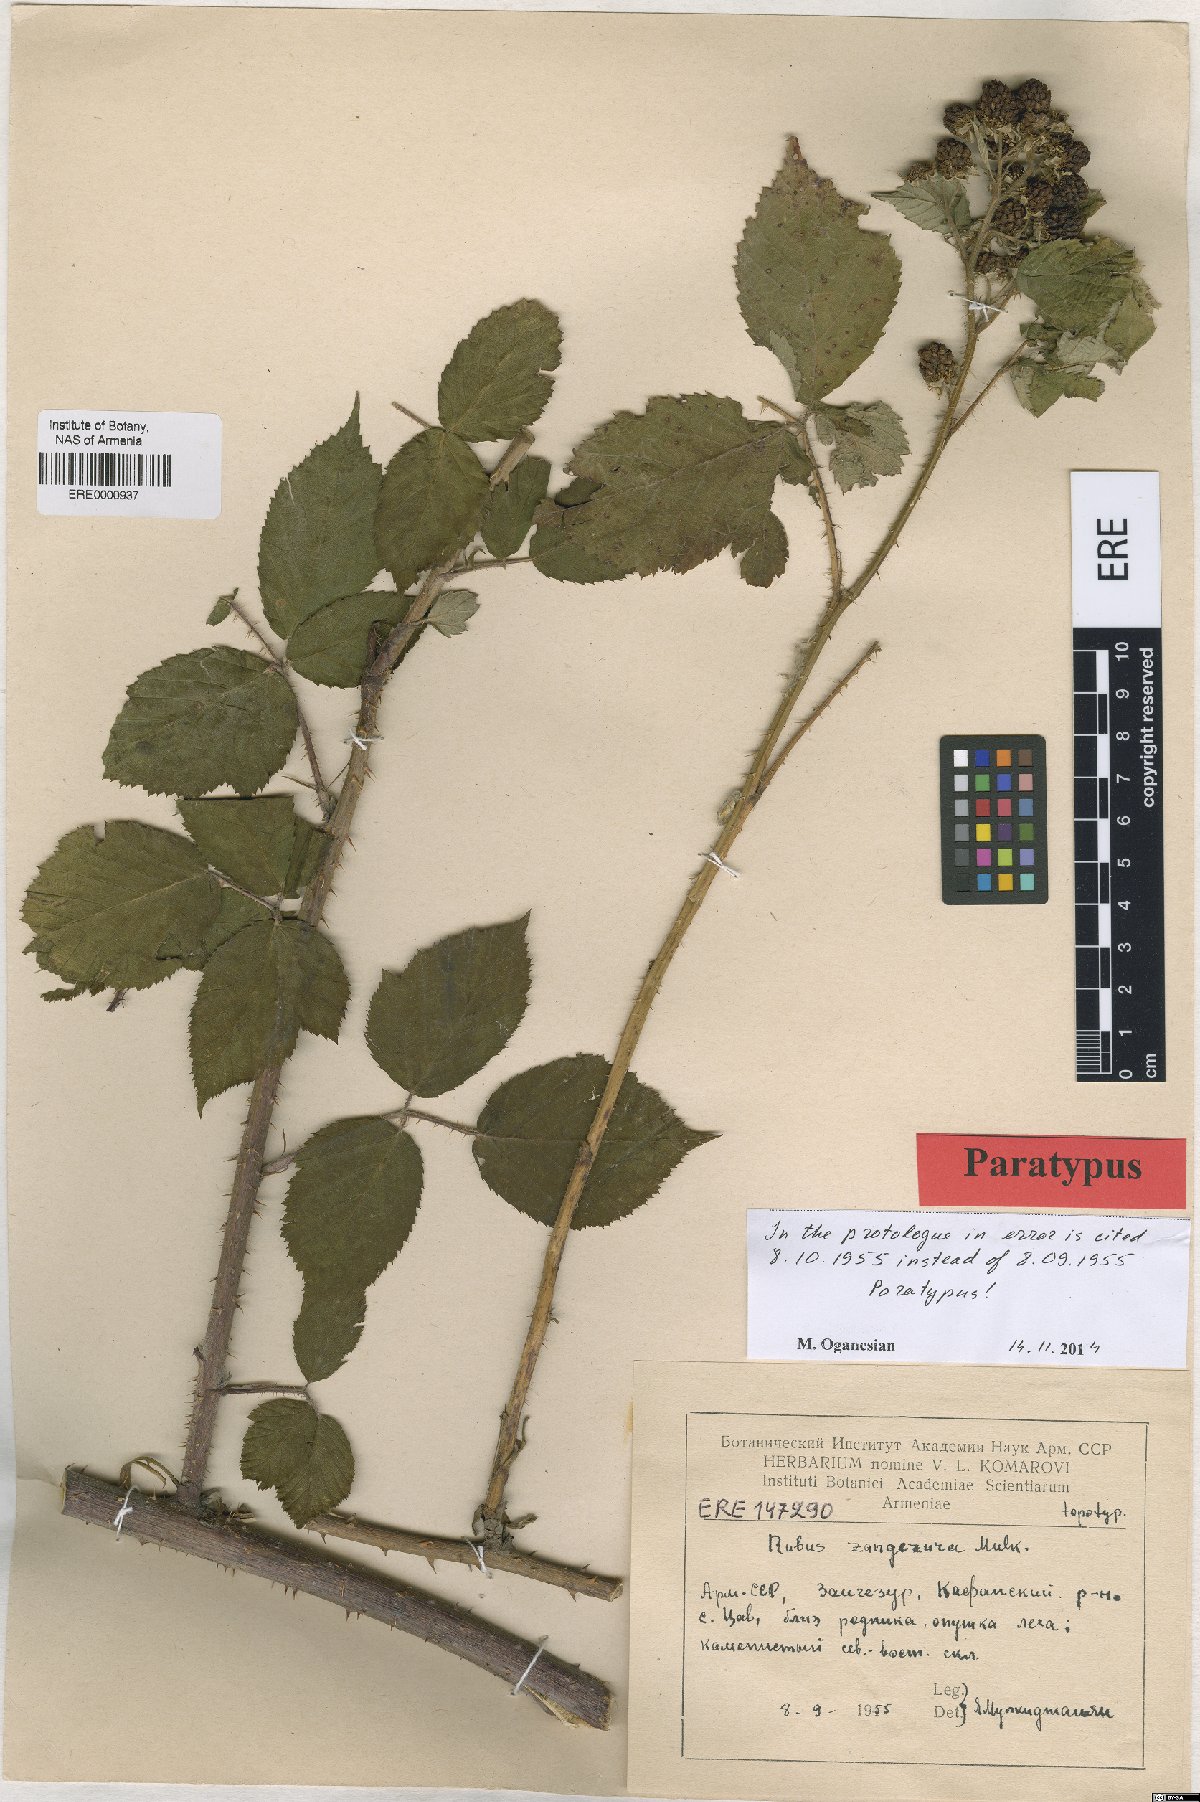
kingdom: Plantae
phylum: Tracheophyta
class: Magnoliopsida
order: Rosales
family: Rosaceae
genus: Rubus
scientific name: Rubus zangezurus
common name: Zangezurian blackberry
